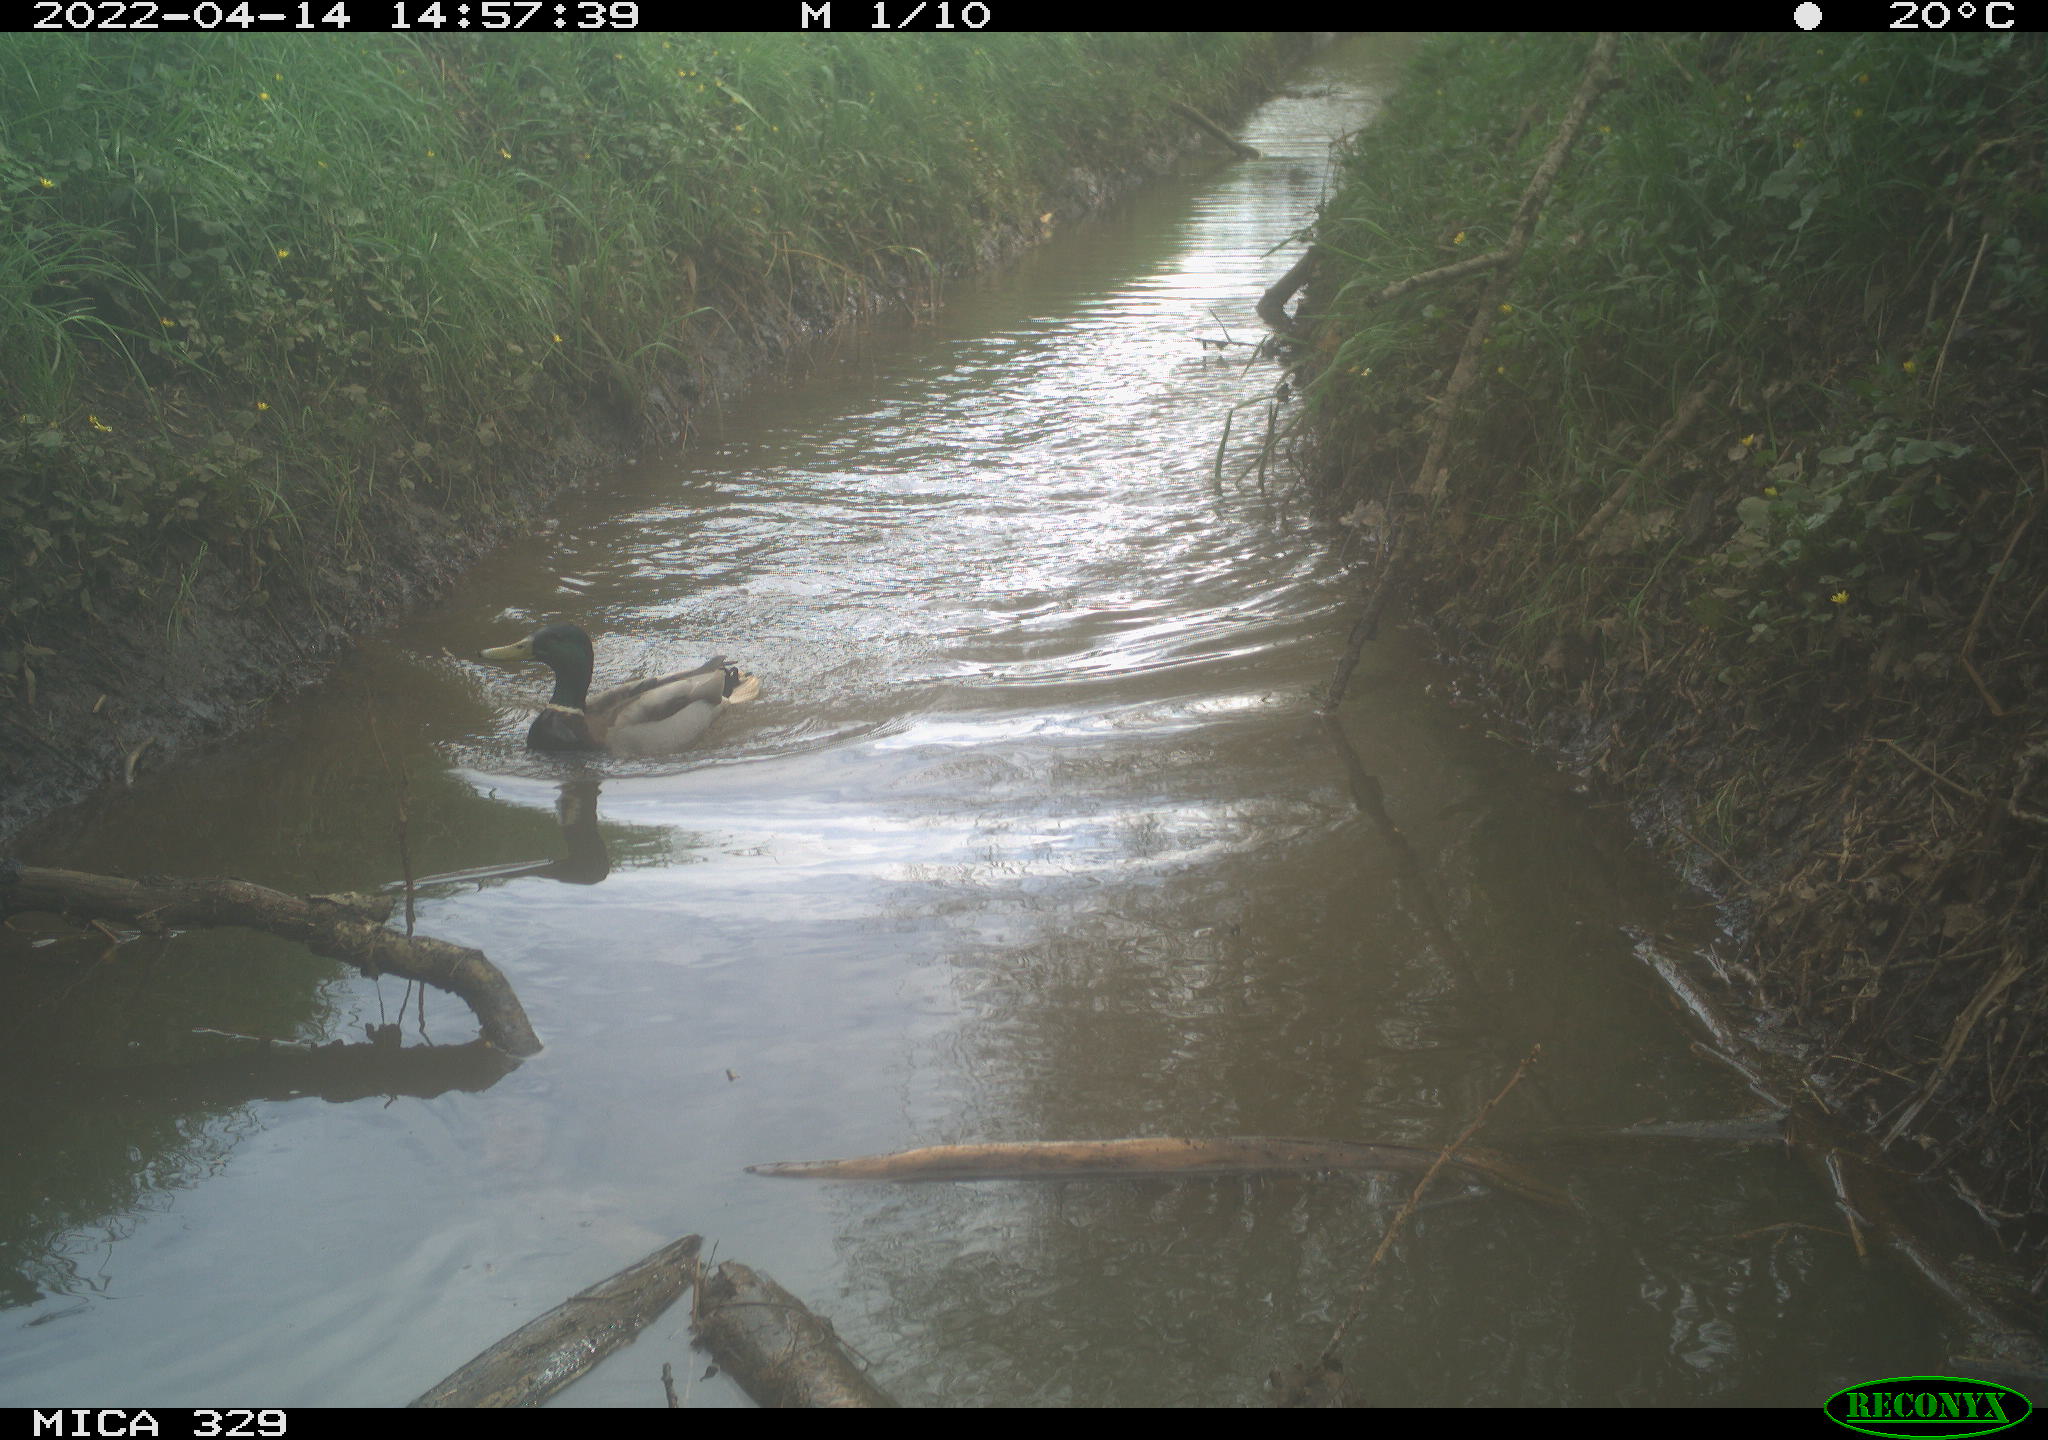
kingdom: Animalia
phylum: Chordata
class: Aves
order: Anseriformes
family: Anatidae
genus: Anas
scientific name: Anas platyrhynchos
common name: Mallard
